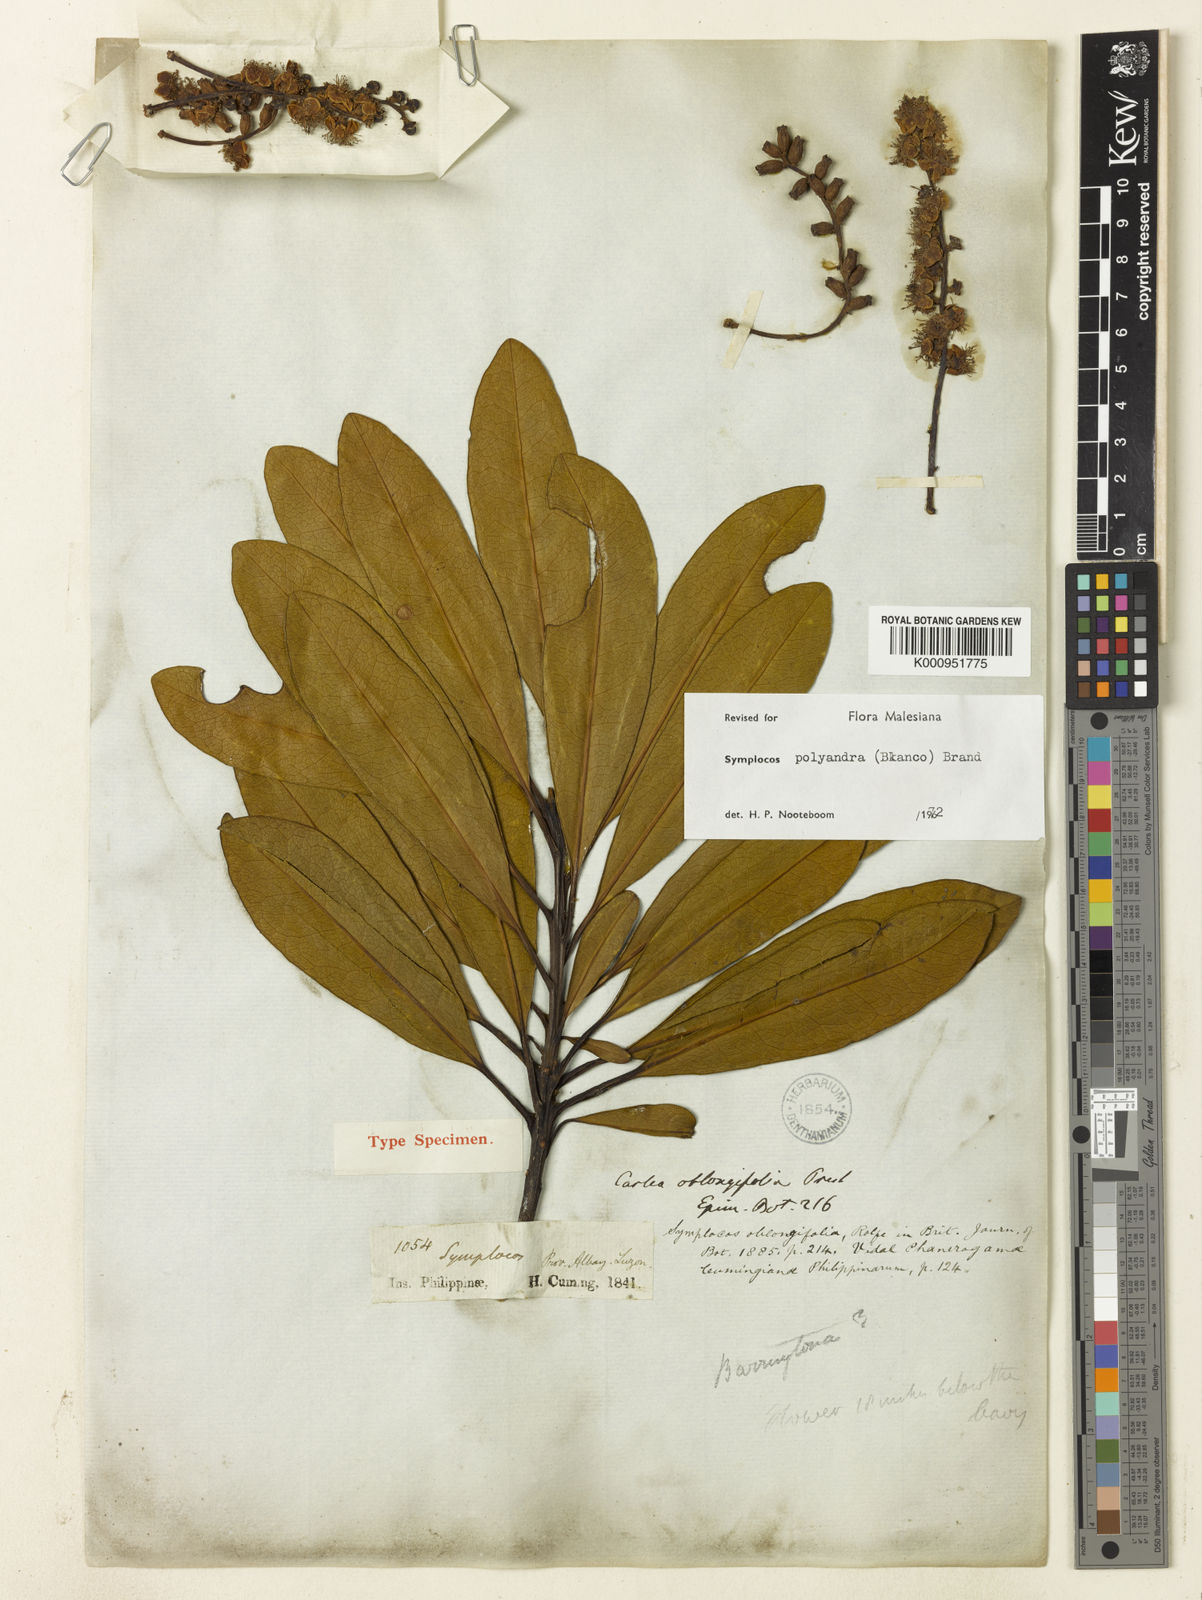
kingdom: Plantae
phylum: Tracheophyta
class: Magnoliopsida
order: Ericales
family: Symplocaceae
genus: Symplocos
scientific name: Symplocos polyandra
